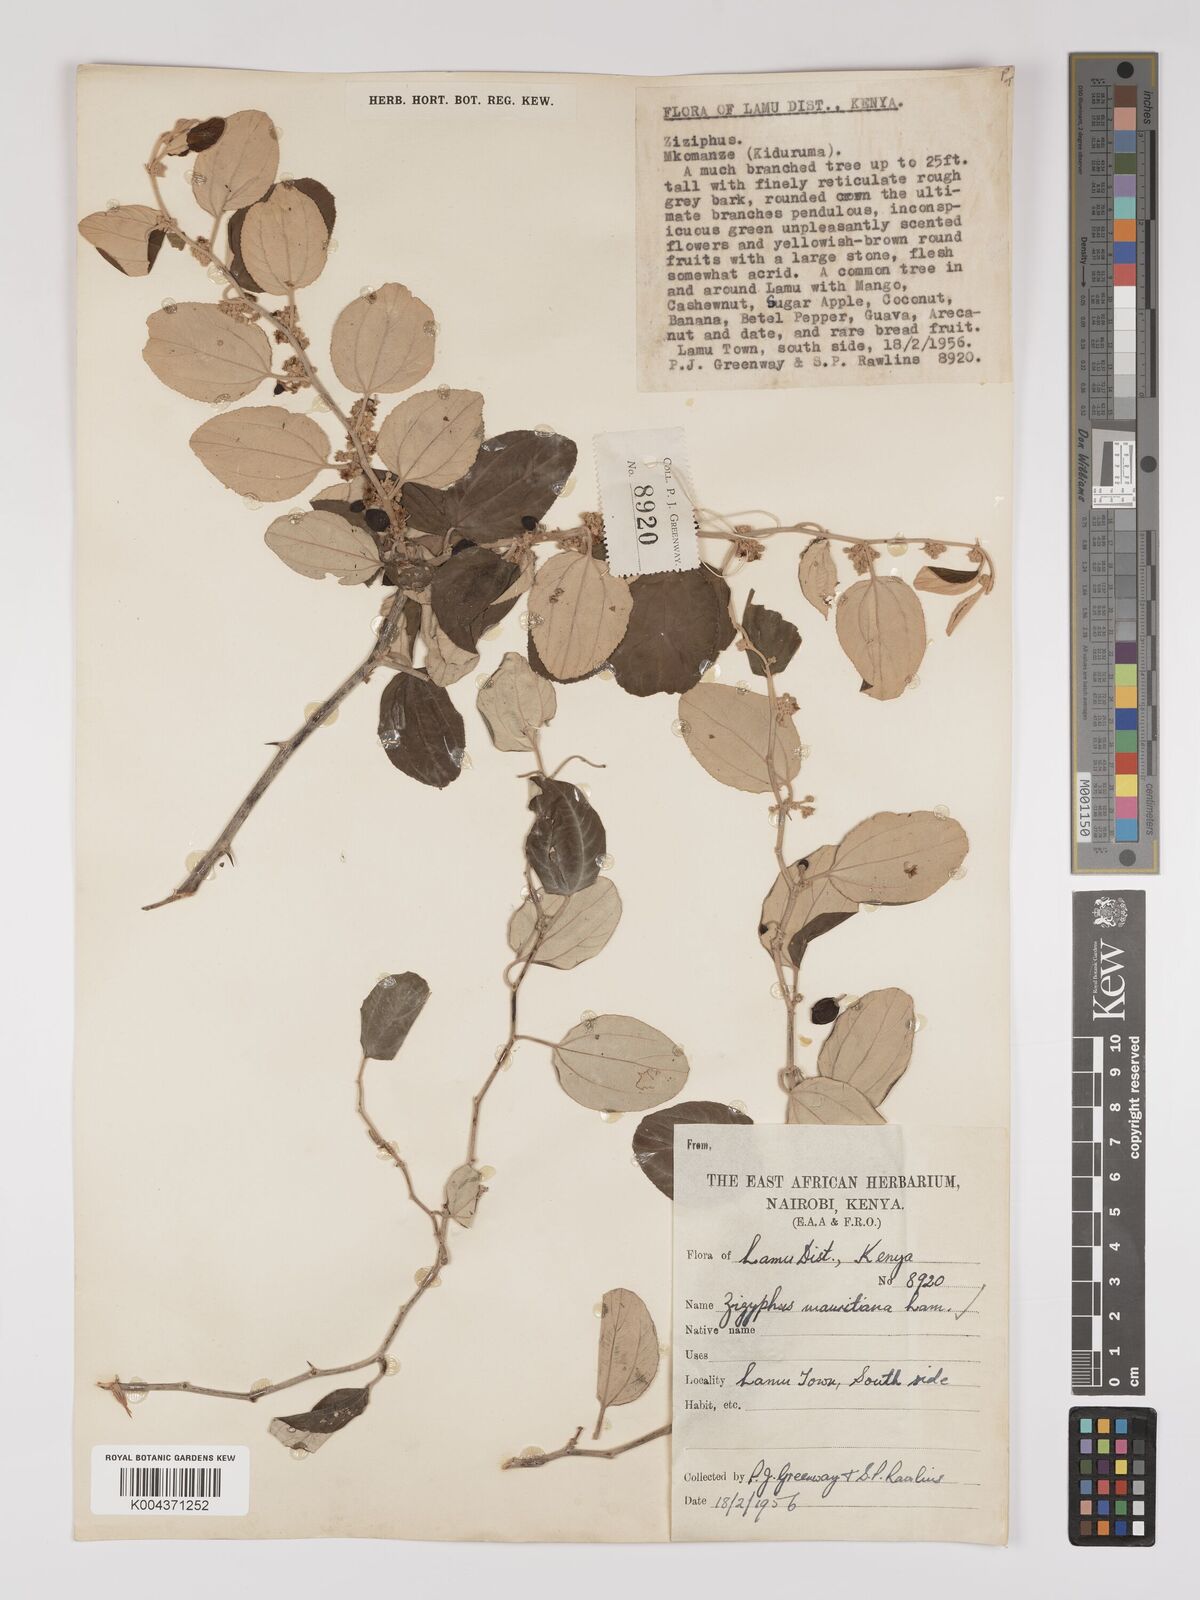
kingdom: Plantae
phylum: Tracheophyta
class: Magnoliopsida
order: Rosales
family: Rhamnaceae
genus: Ziziphus
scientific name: Ziziphus mauritiana
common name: Indian jujube
